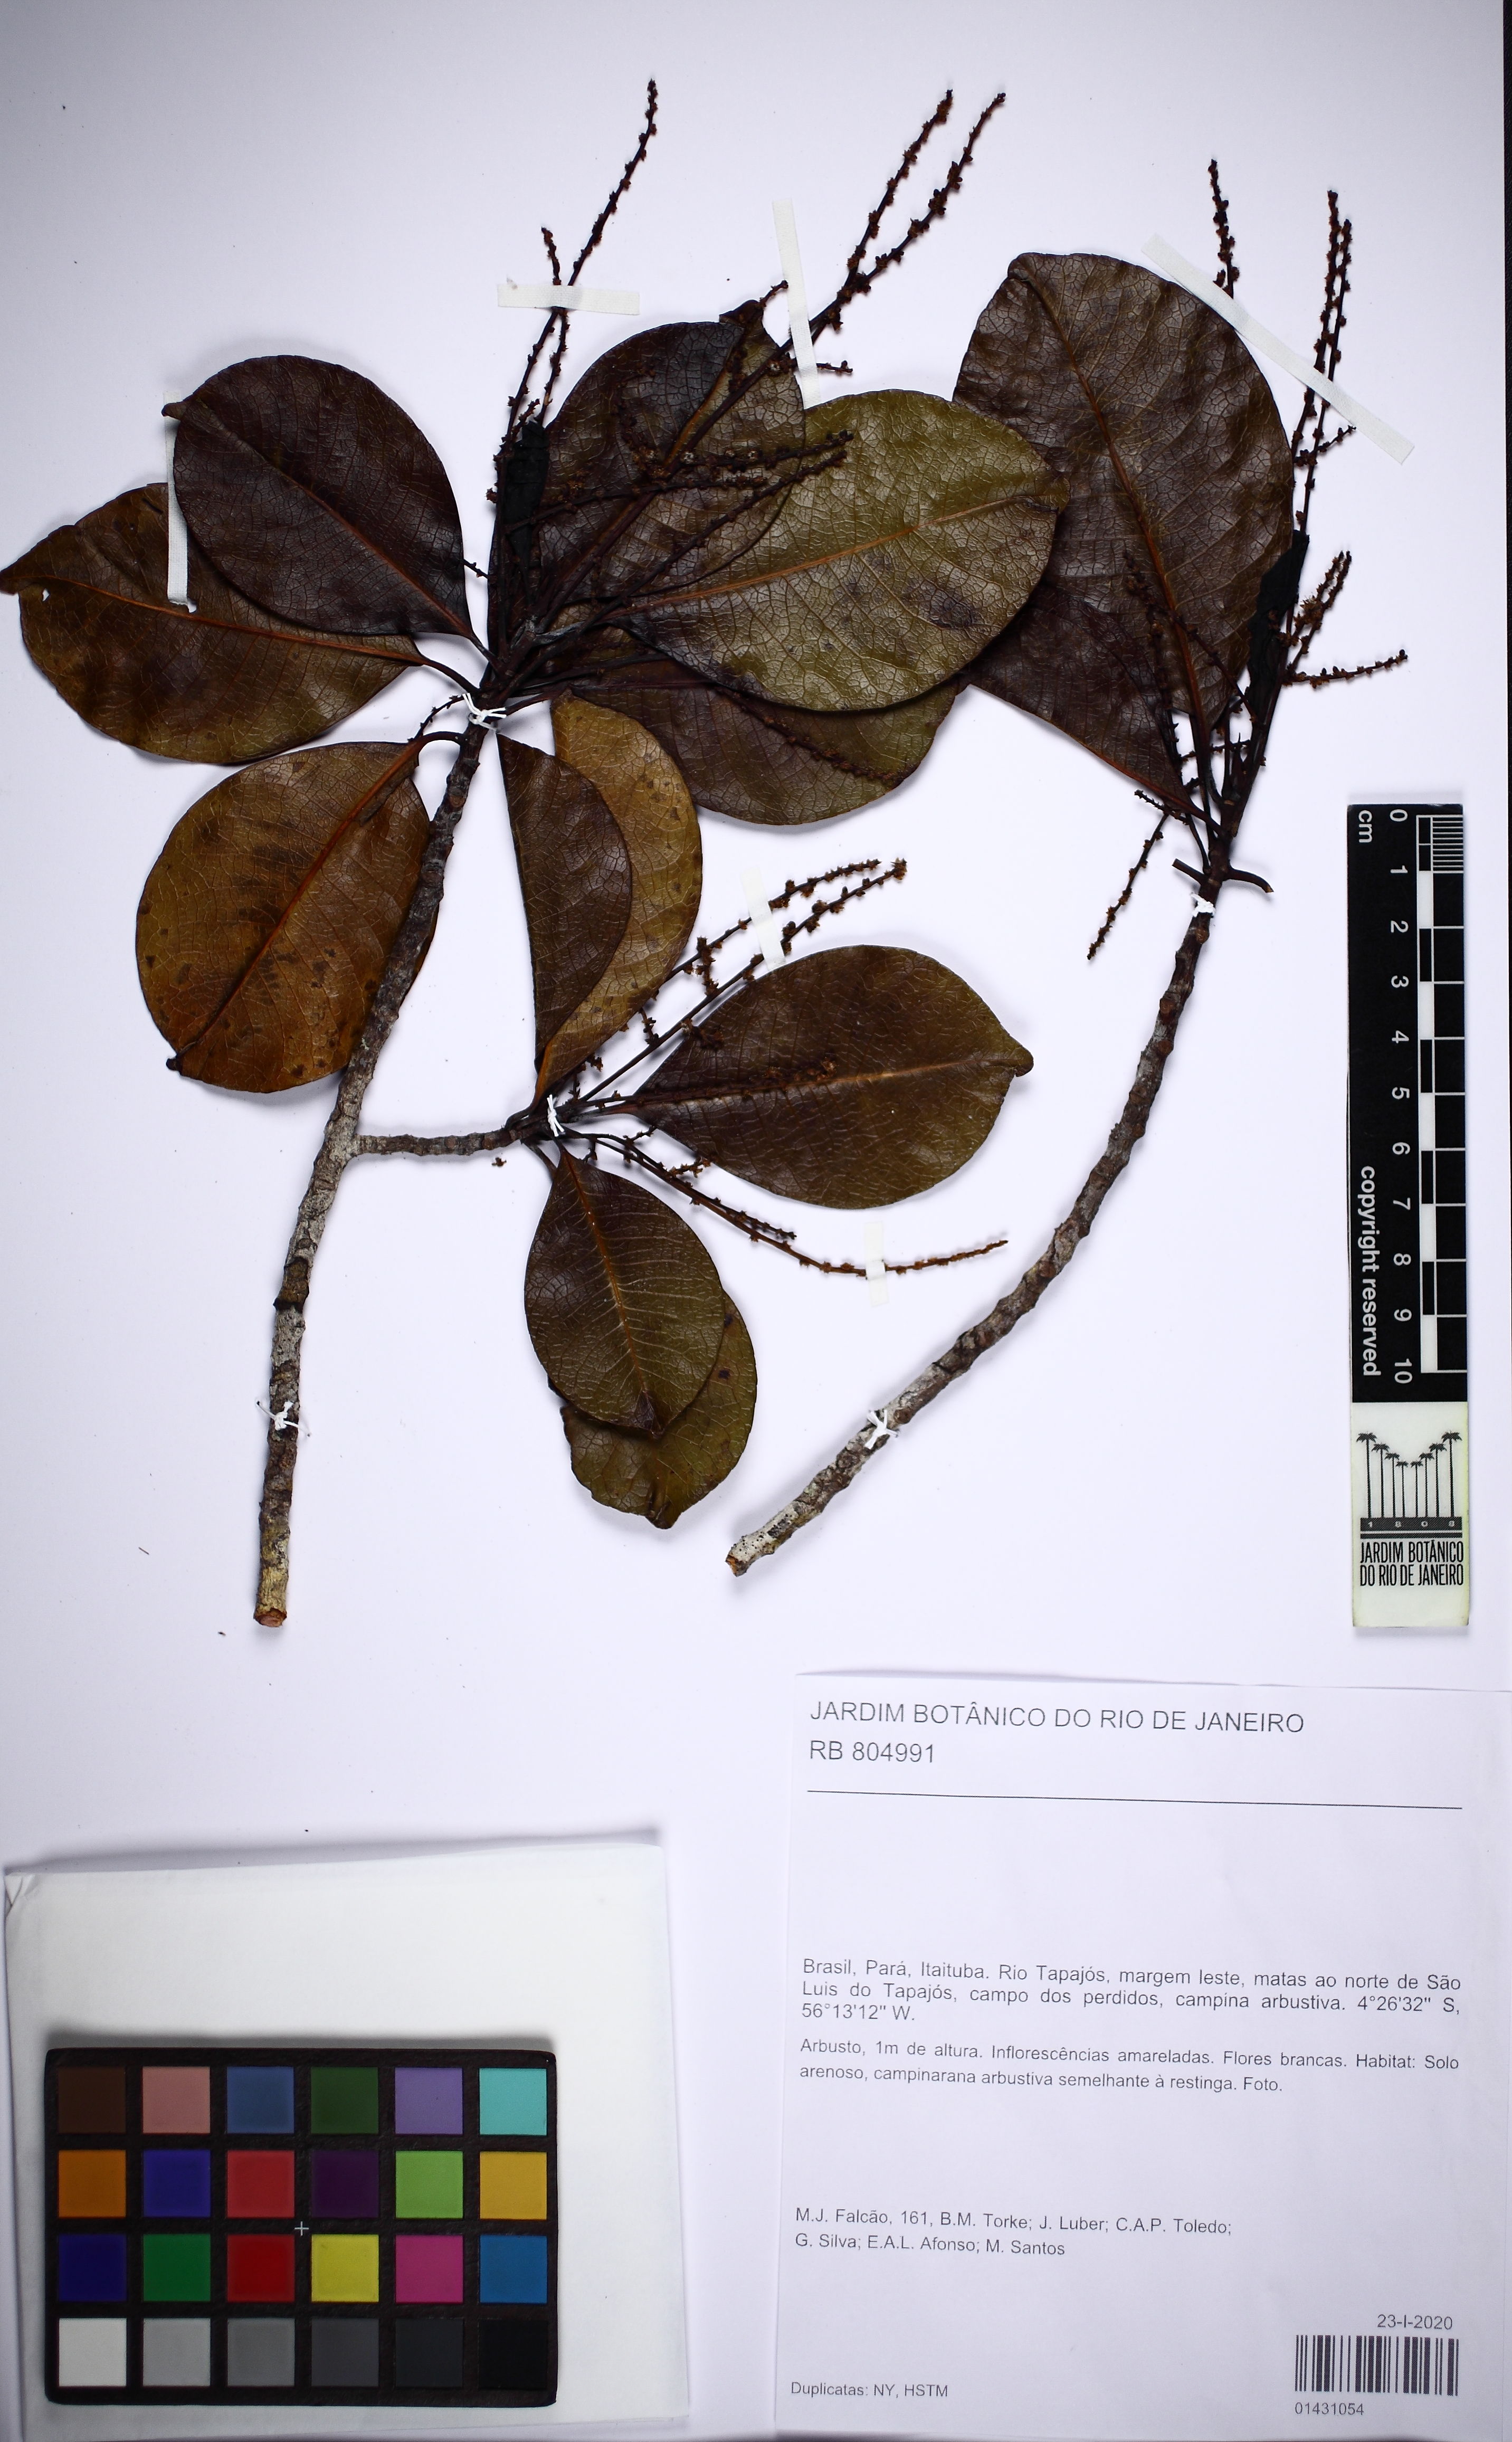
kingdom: Plantae
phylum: Tracheophyta
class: Magnoliopsida
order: Malpighiales
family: Salicaceae
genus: Casearia
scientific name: Casearia euceraea
